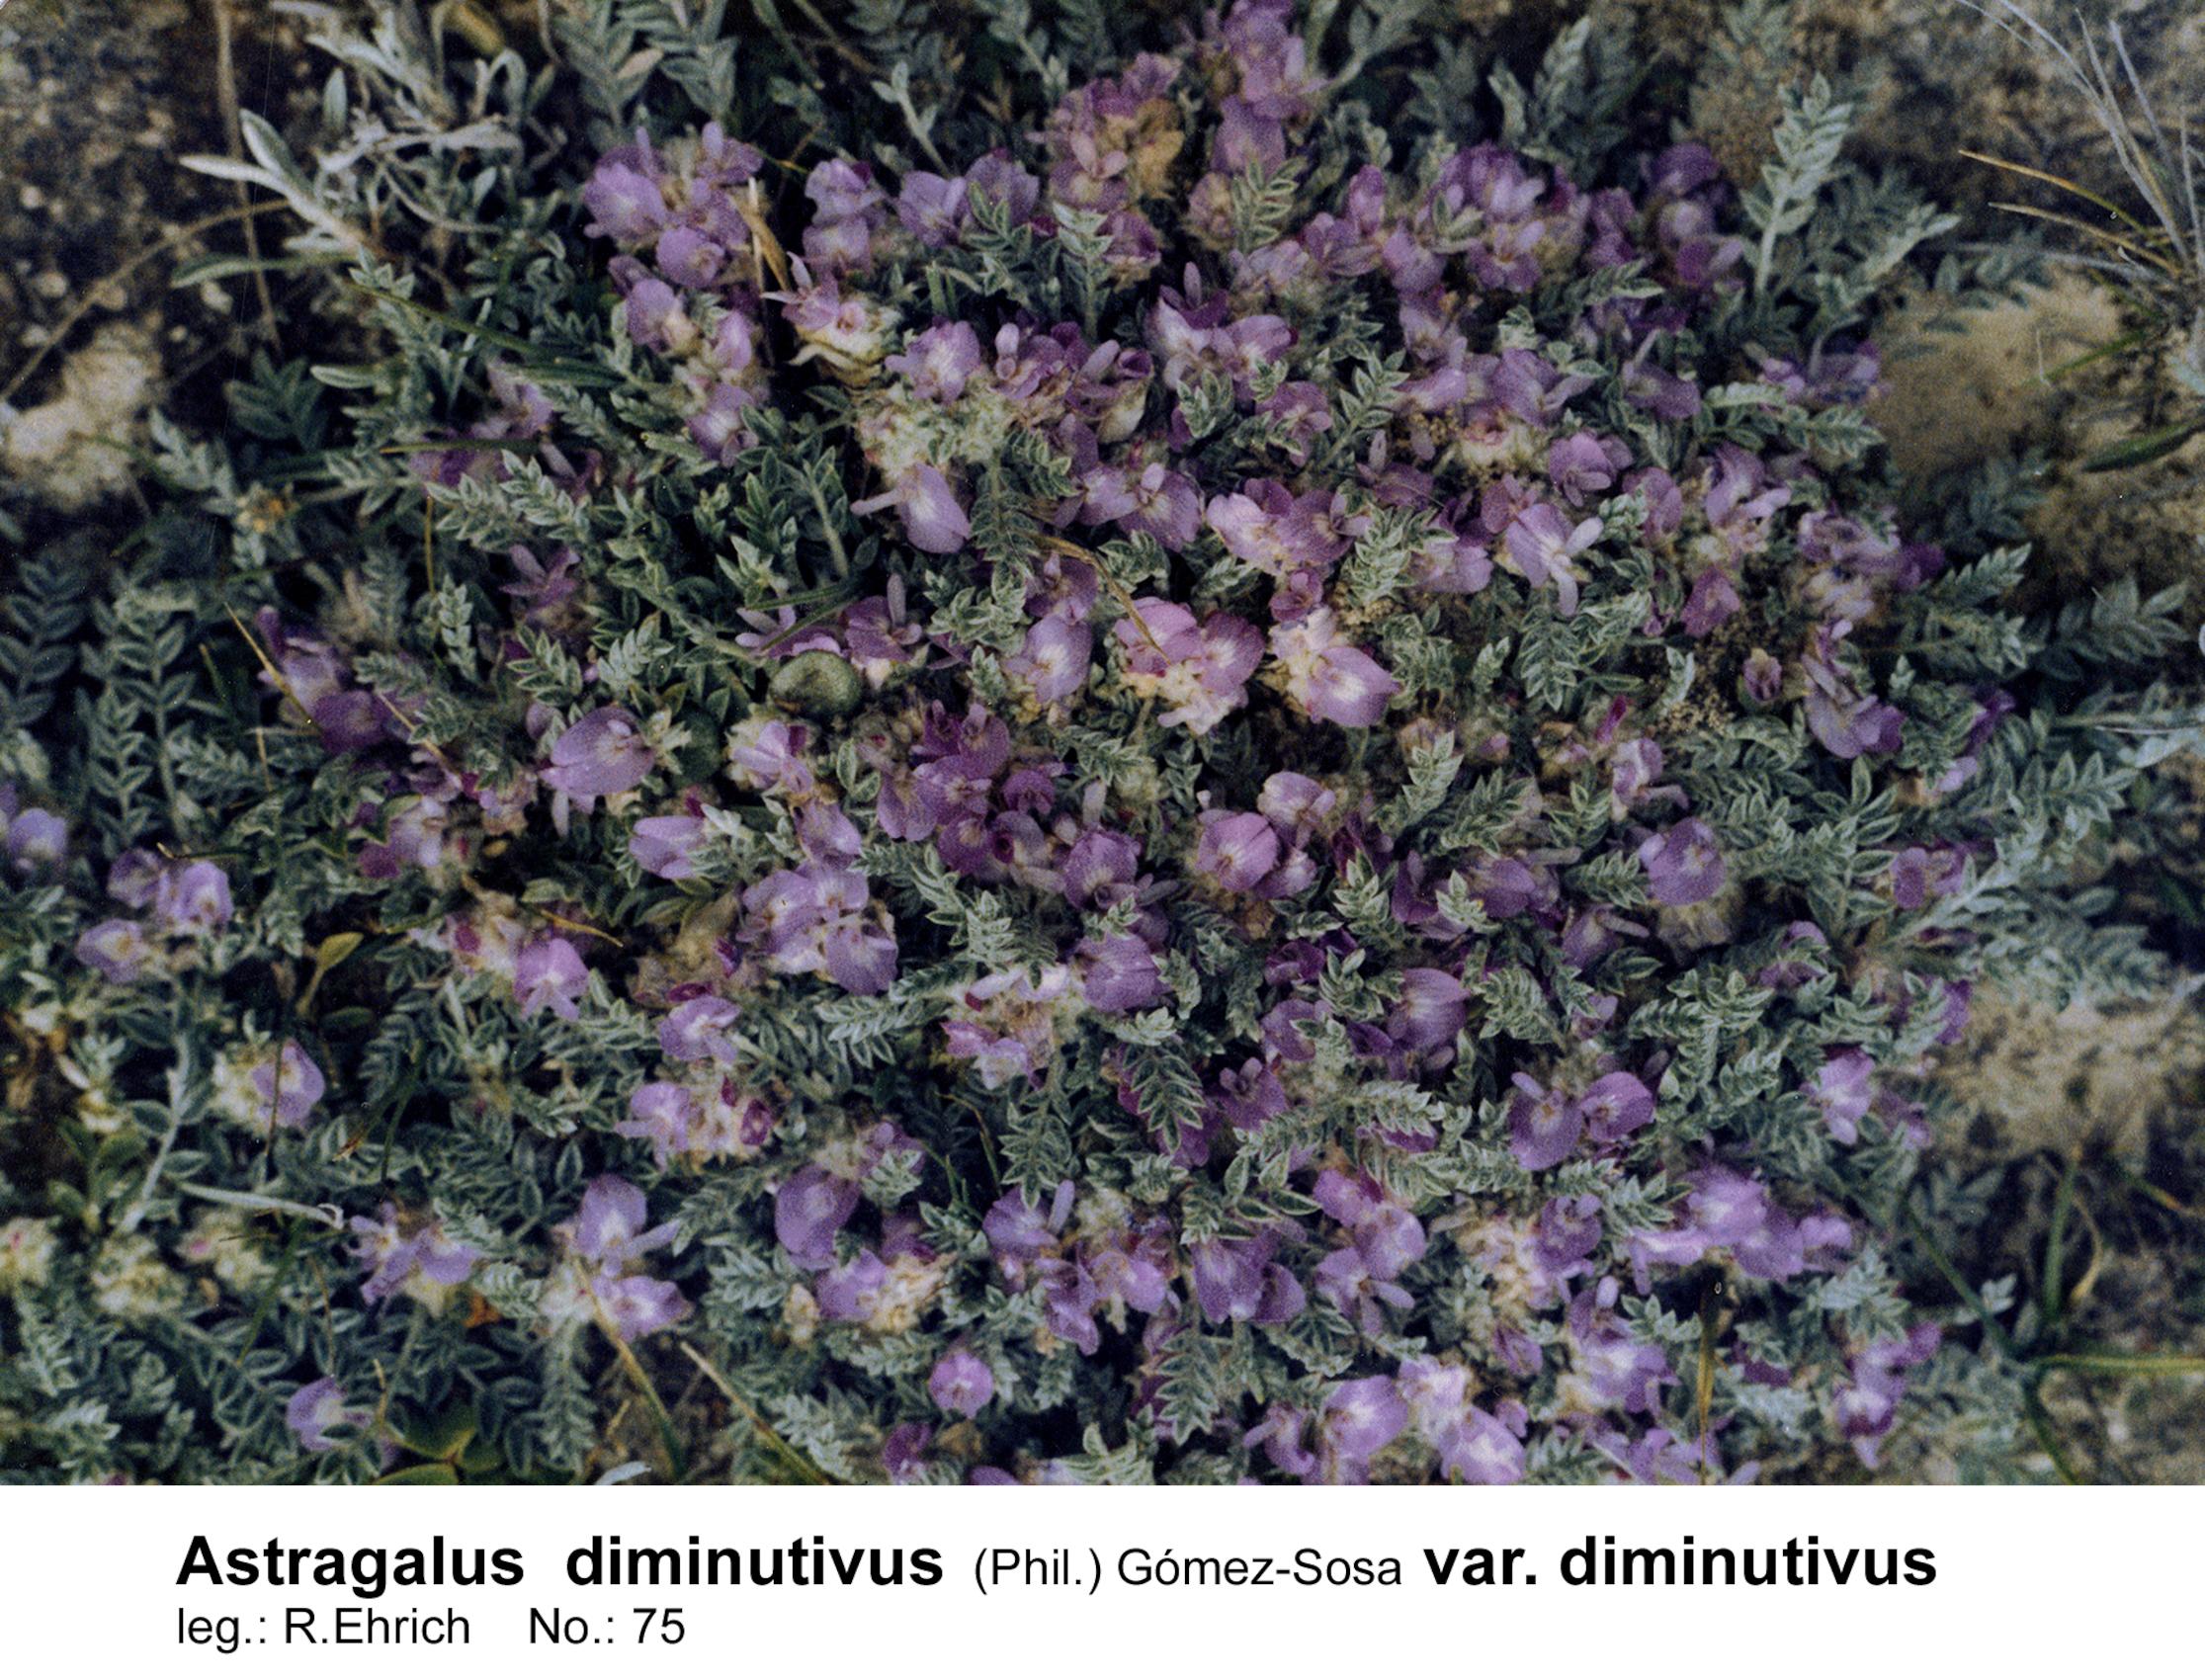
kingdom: Plantae
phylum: Tracheophyta
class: Magnoliopsida
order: Fabales
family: Fabaceae
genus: Astragalus
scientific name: Astragalus diminutivus
